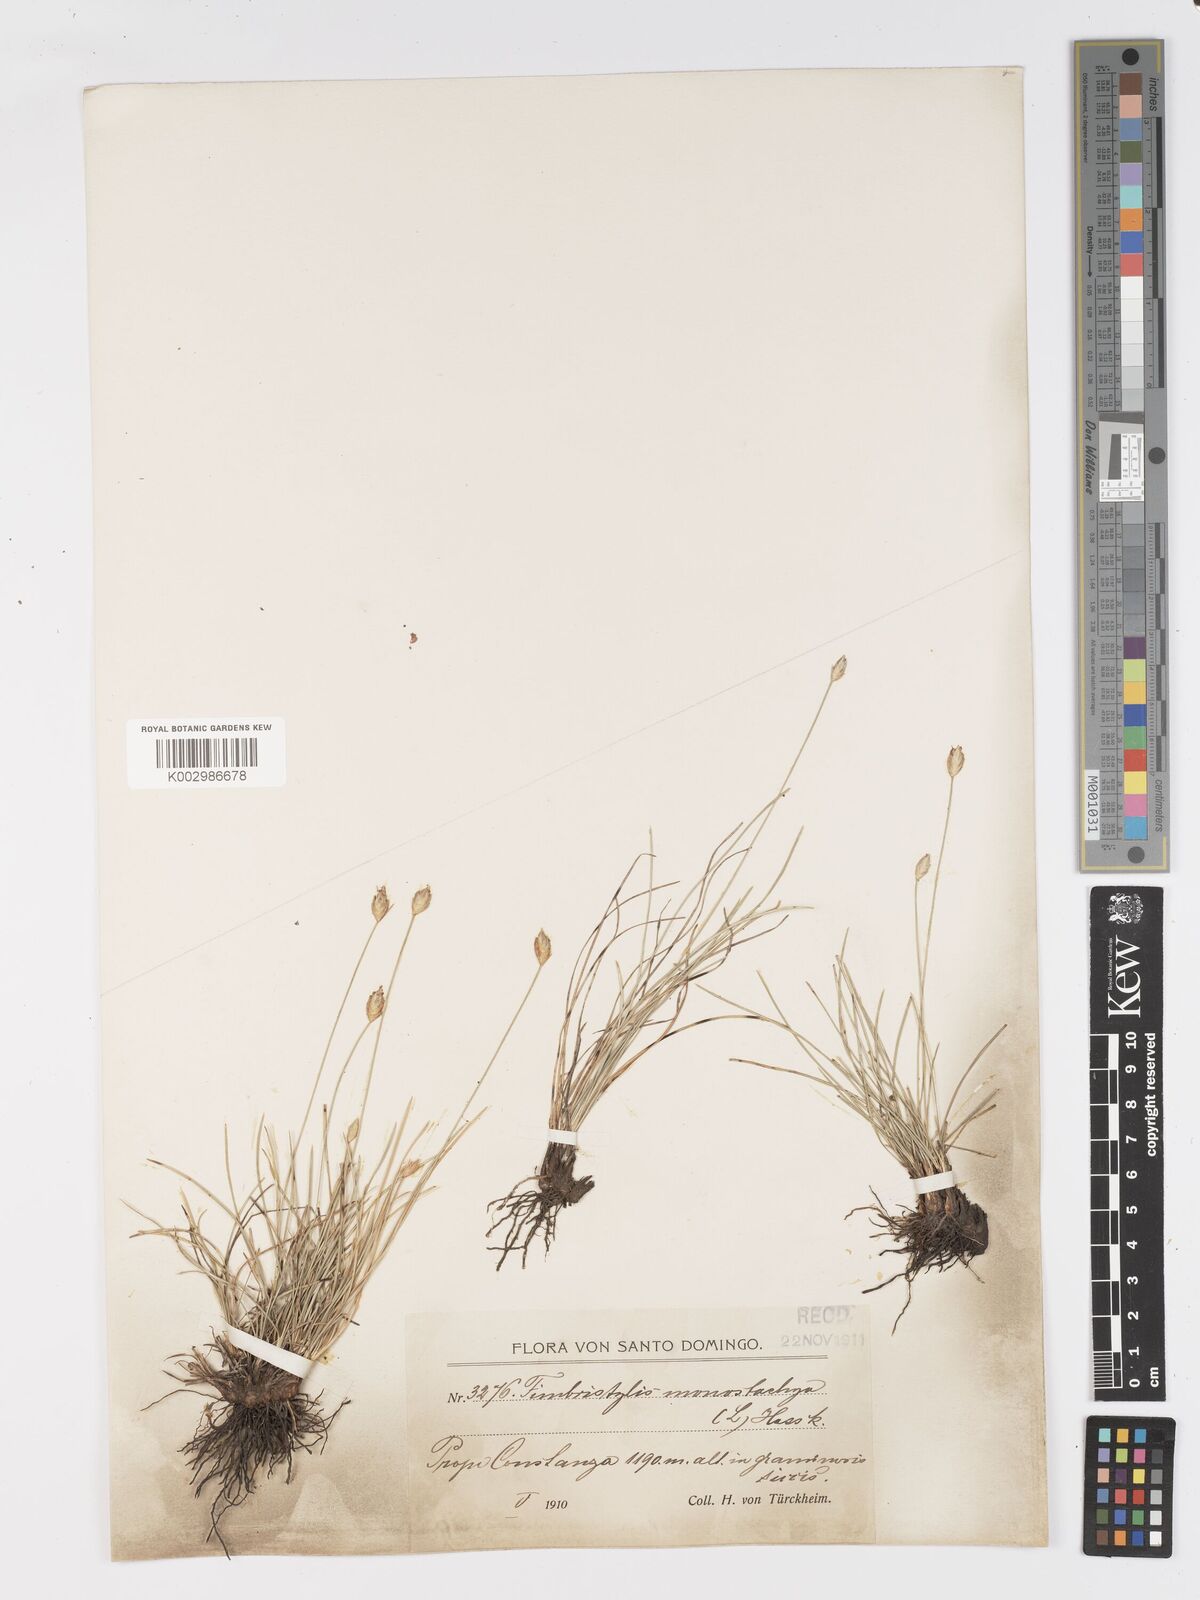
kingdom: Plantae
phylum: Tracheophyta
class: Liliopsida
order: Poales
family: Cyperaceae
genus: Abildgaardia
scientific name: Abildgaardia ovata
